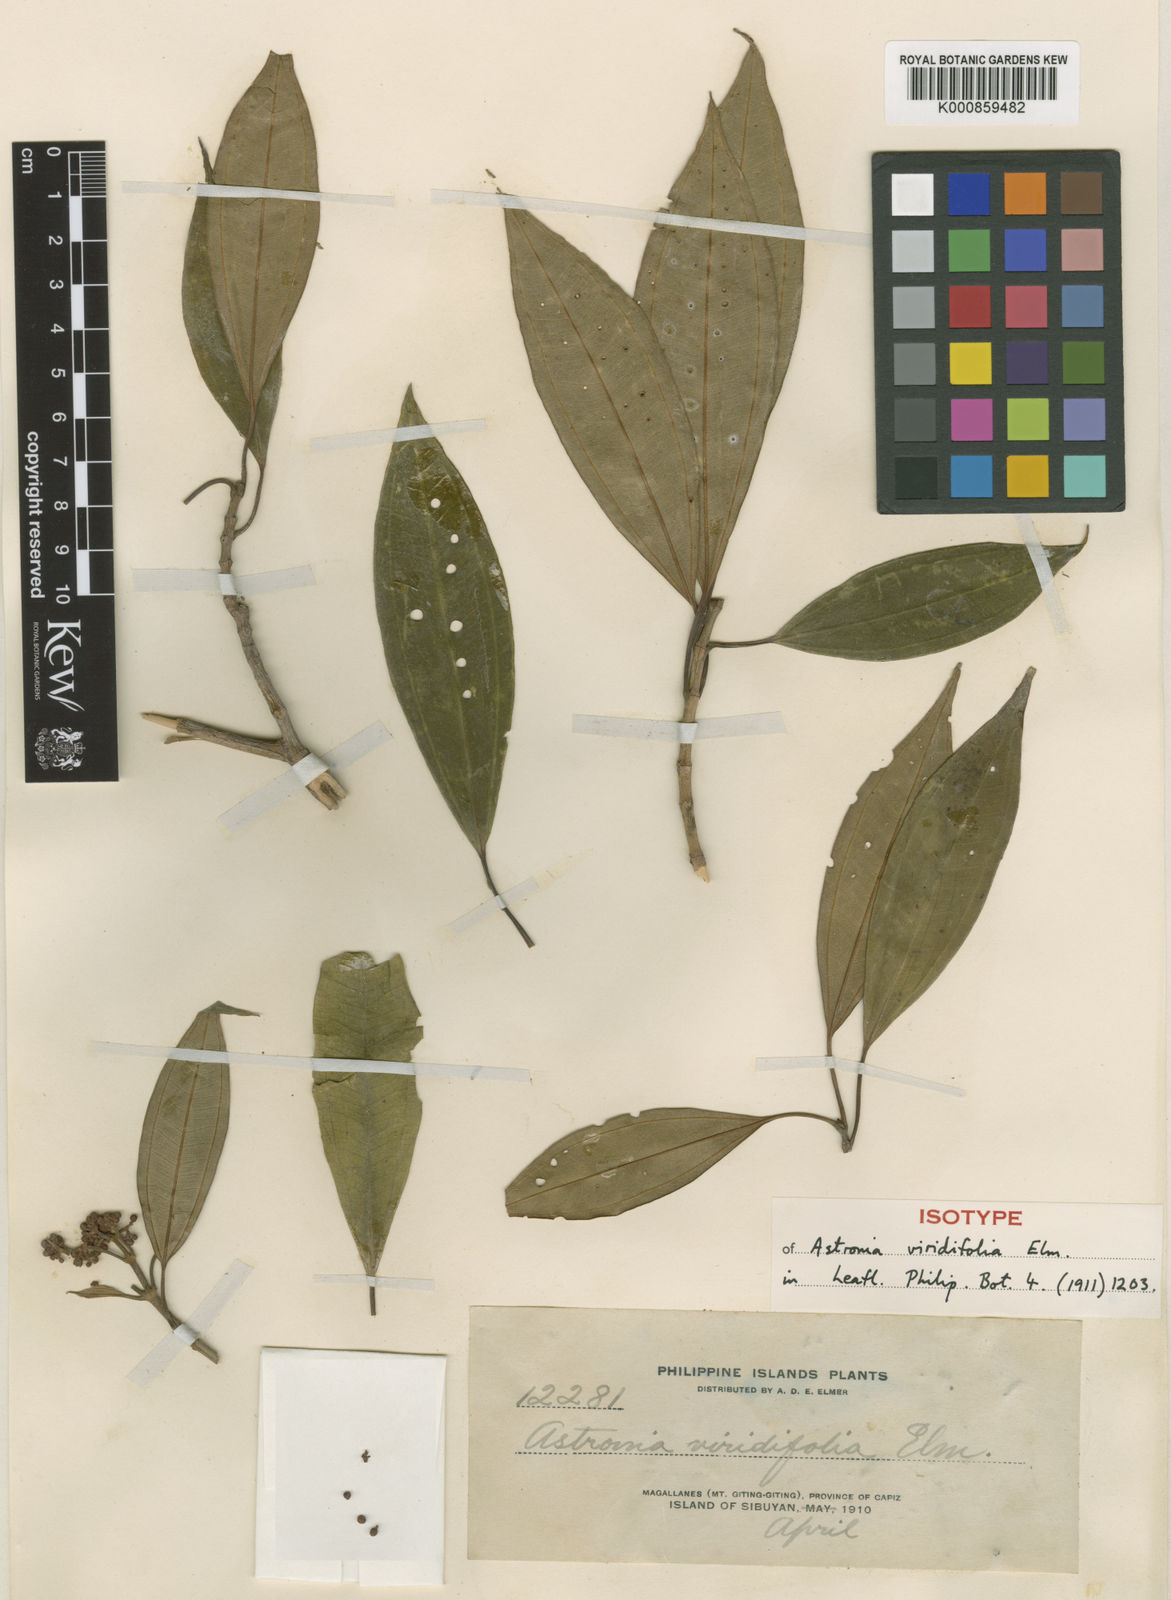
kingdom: Plantae
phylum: Tracheophyta
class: Magnoliopsida
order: Myrtales
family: Melastomataceae
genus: Astronia
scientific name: Astronia viridifolia
